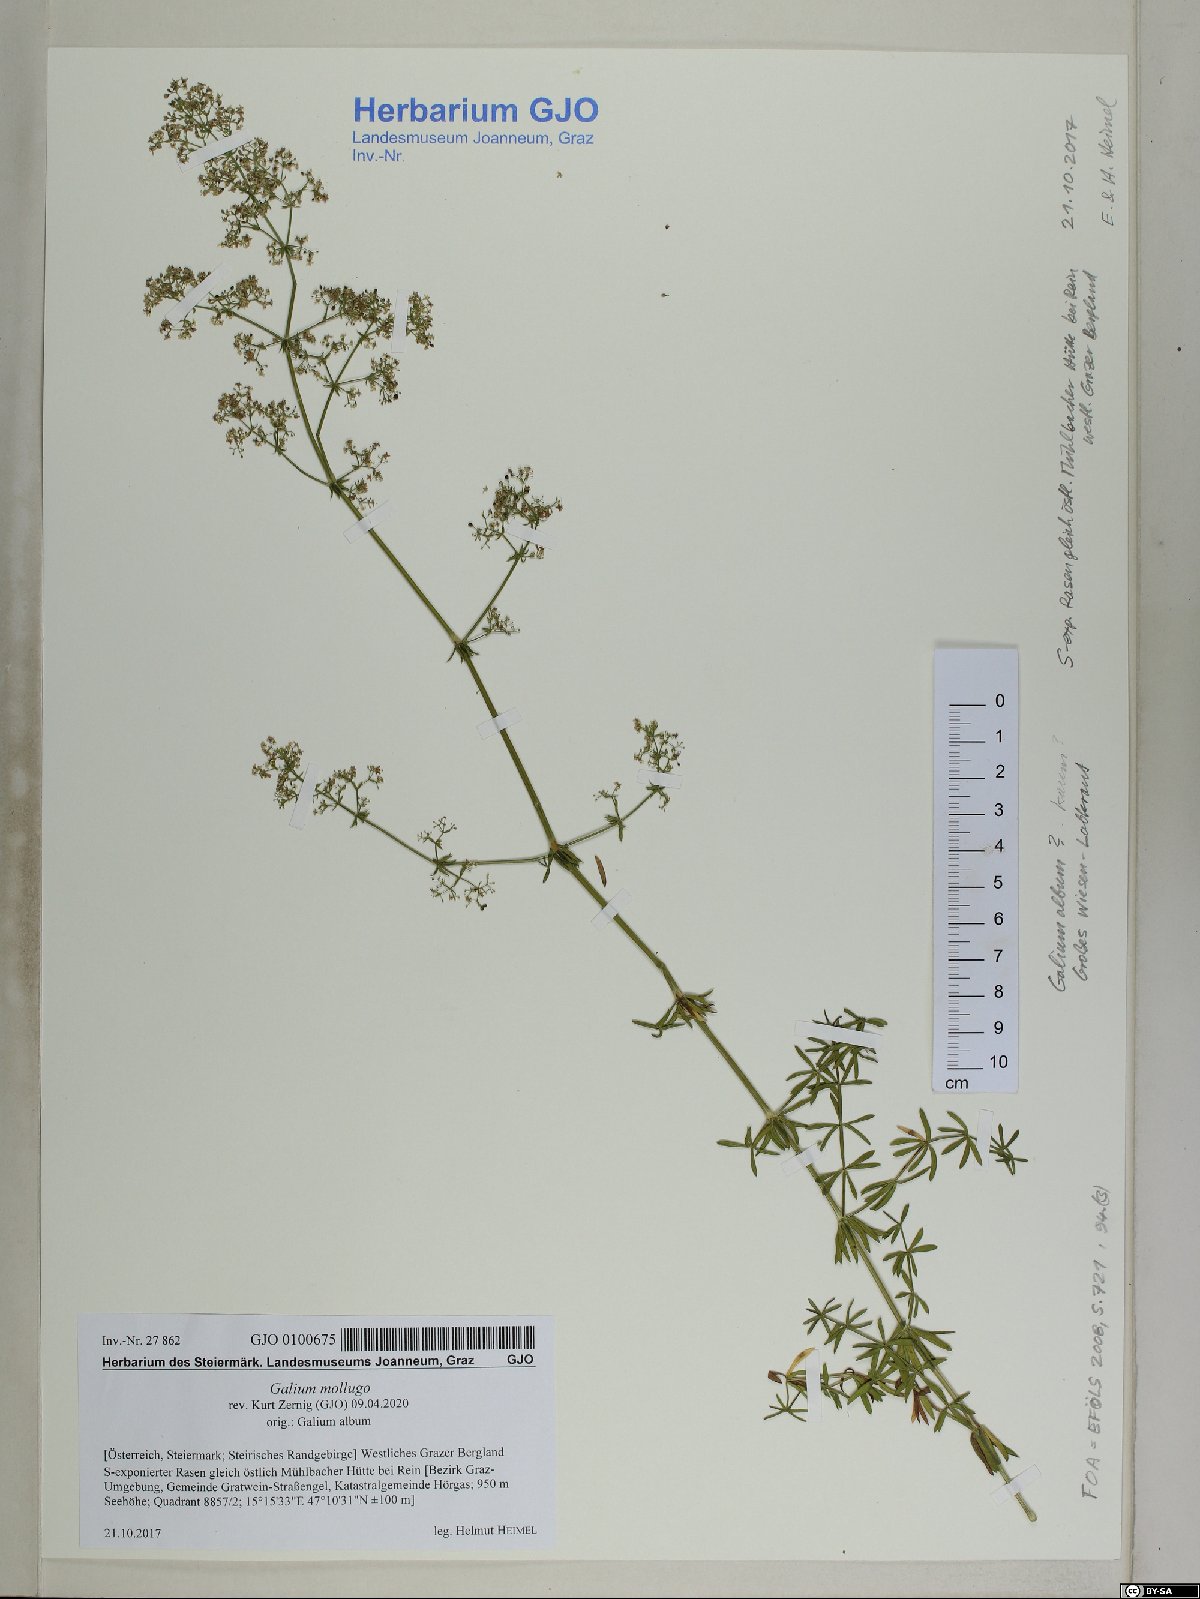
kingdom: Plantae
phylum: Tracheophyta
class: Magnoliopsida
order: Gentianales
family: Rubiaceae
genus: Galium
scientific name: Galium mollugo
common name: Hedge bedstraw
